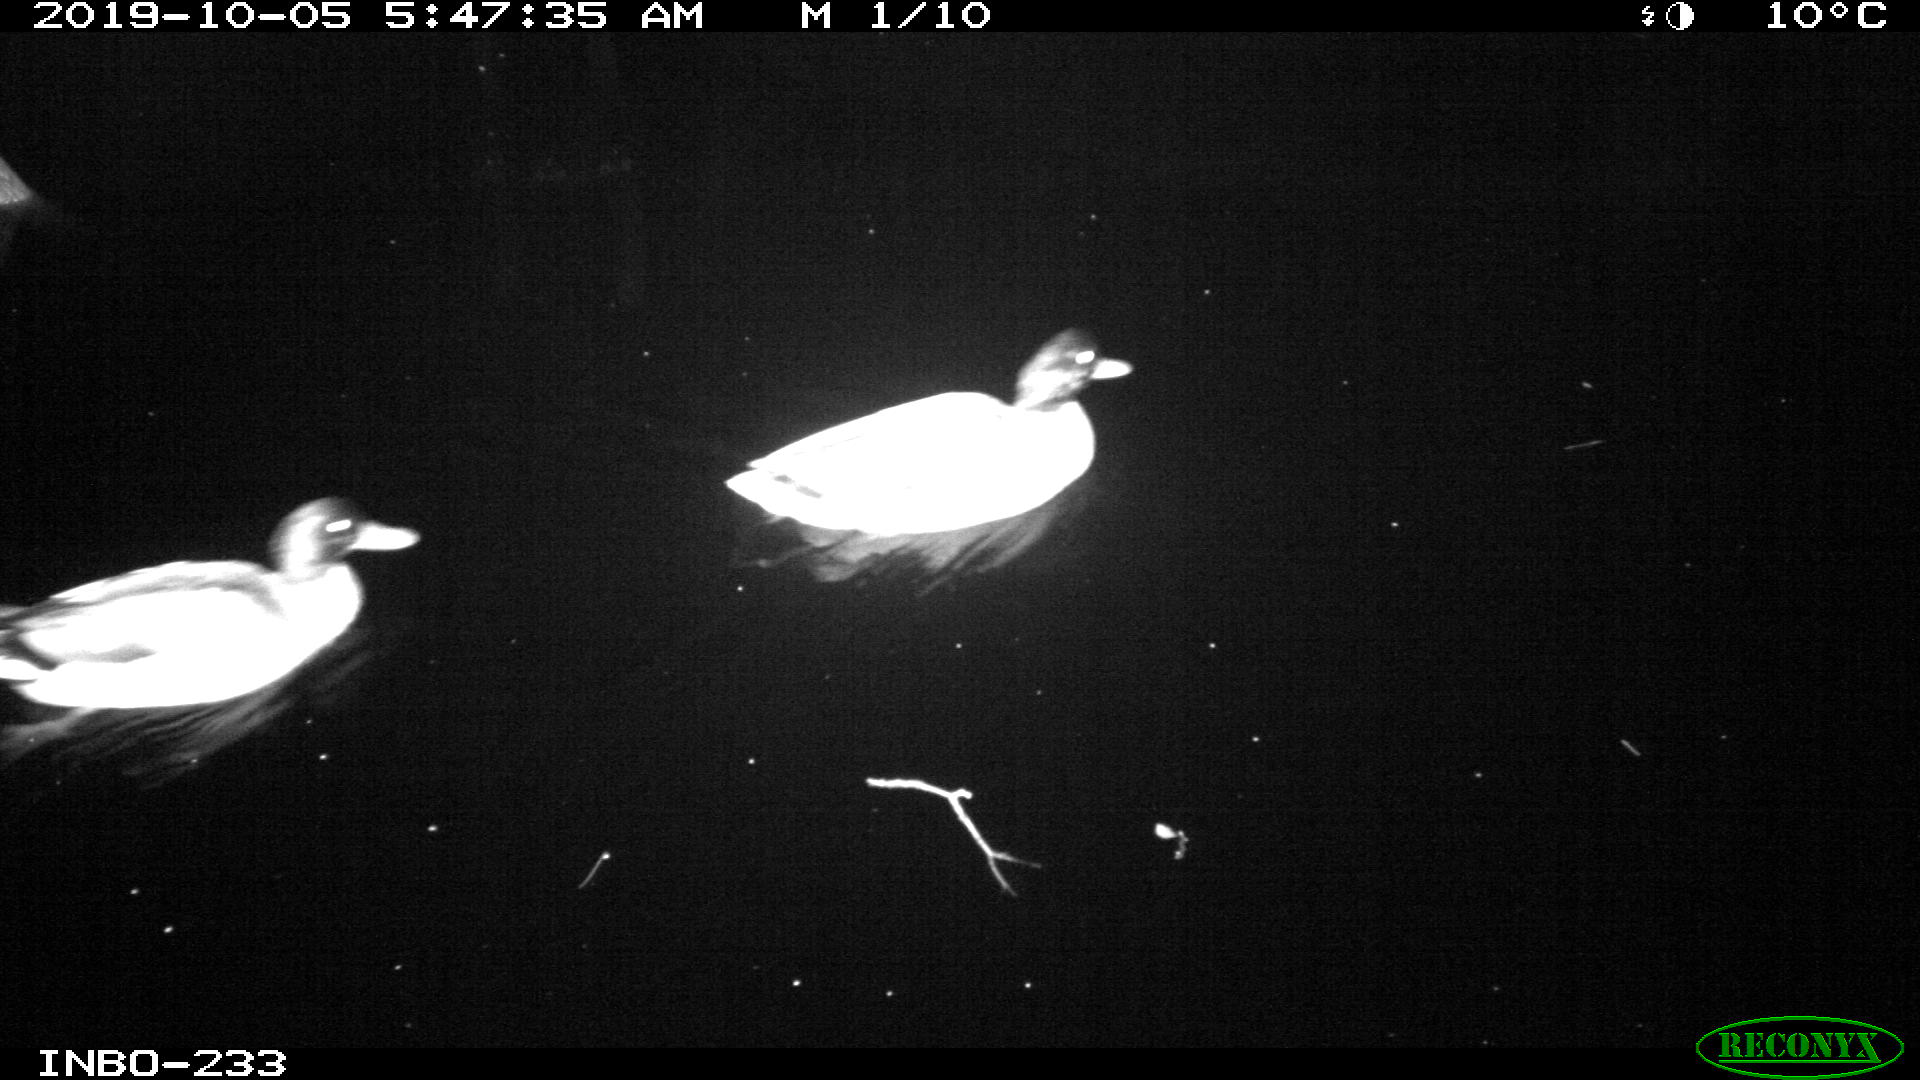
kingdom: Animalia
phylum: Chordata
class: Aves
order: Anseriformes
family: Anatidae
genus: Anas
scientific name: Anas platyrhynchos
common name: Mallard
